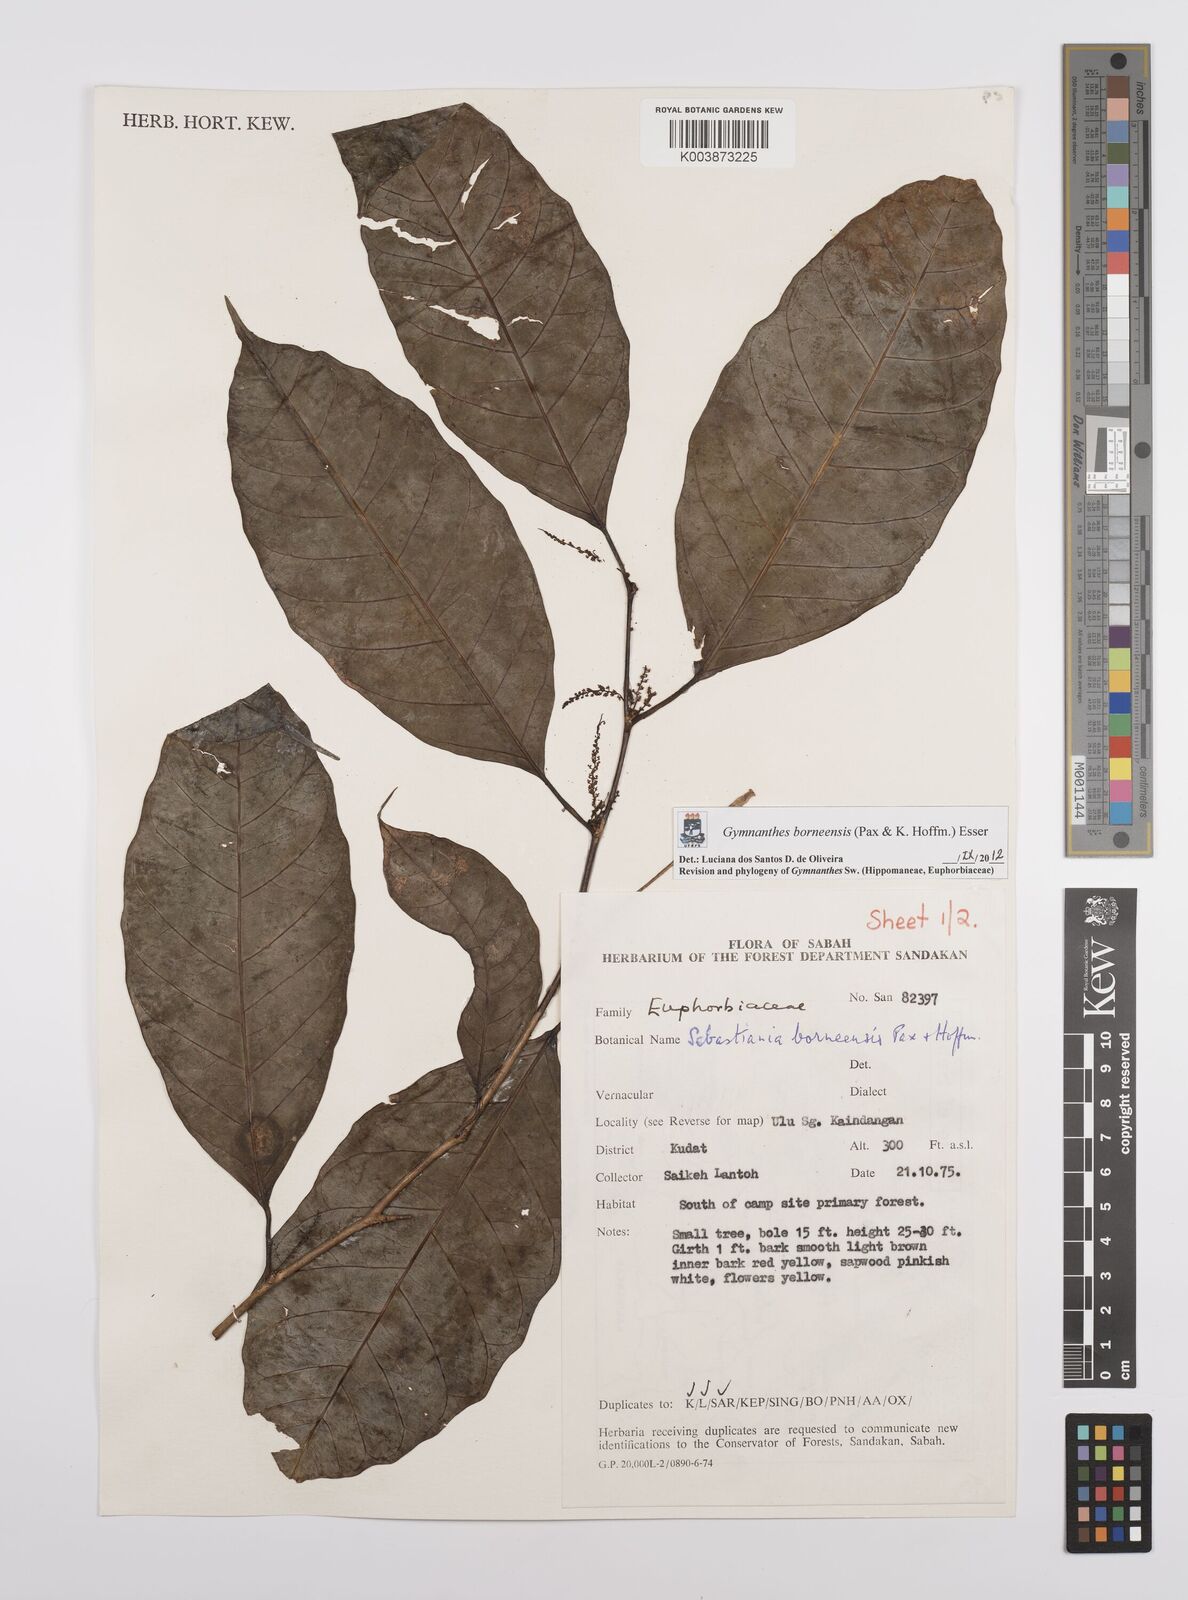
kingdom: Plantae
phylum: Tracheophyta
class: Magnoliopsida
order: Malpighiales
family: Euphorbiaceae
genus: Gymnanthes
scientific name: Gymnanthes borneensis
